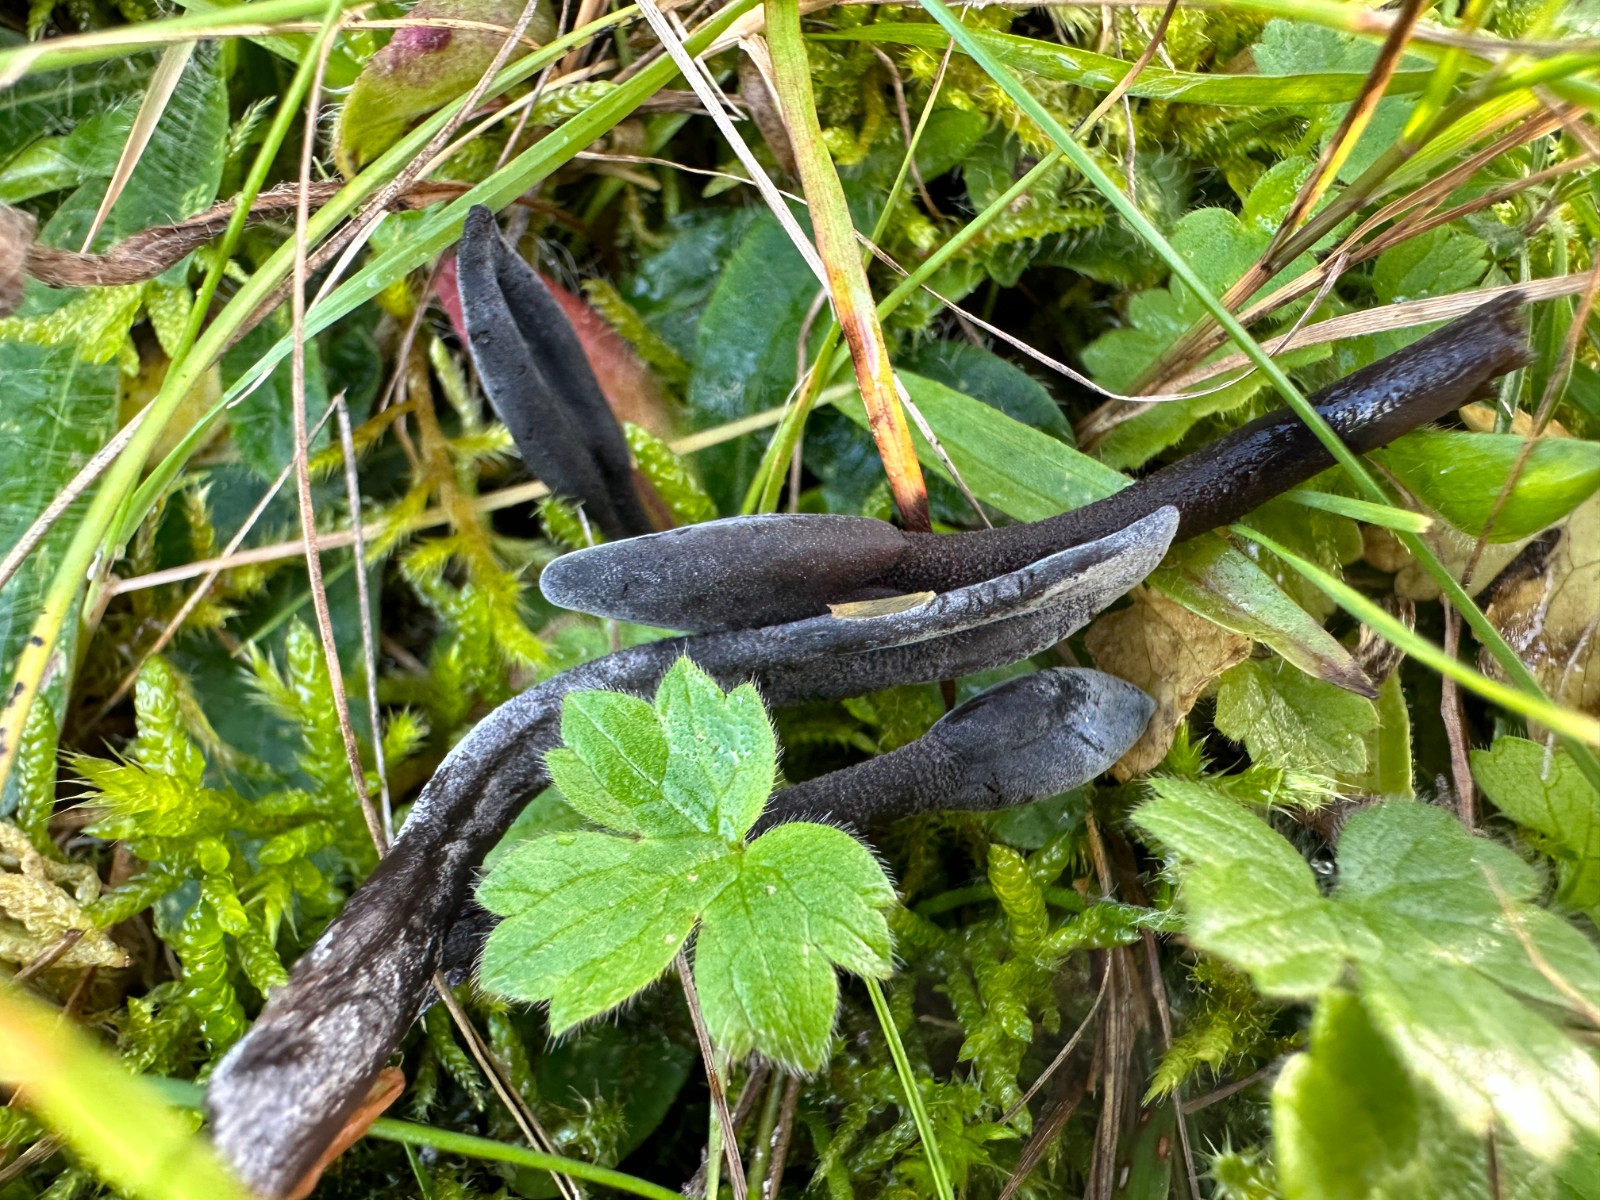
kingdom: Fungi
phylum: Ascomycota
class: Geoglossomycetes
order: Geoglossales
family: Geoglossaceae
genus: Geoglossum
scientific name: Geoglossum
